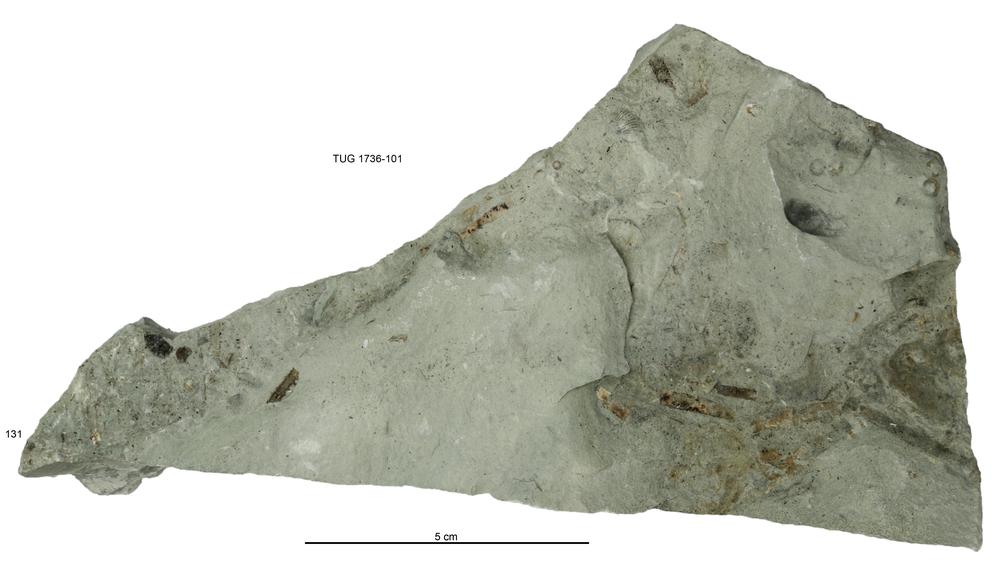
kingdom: Animalia
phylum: Echinodermata
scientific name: Echinodermata
